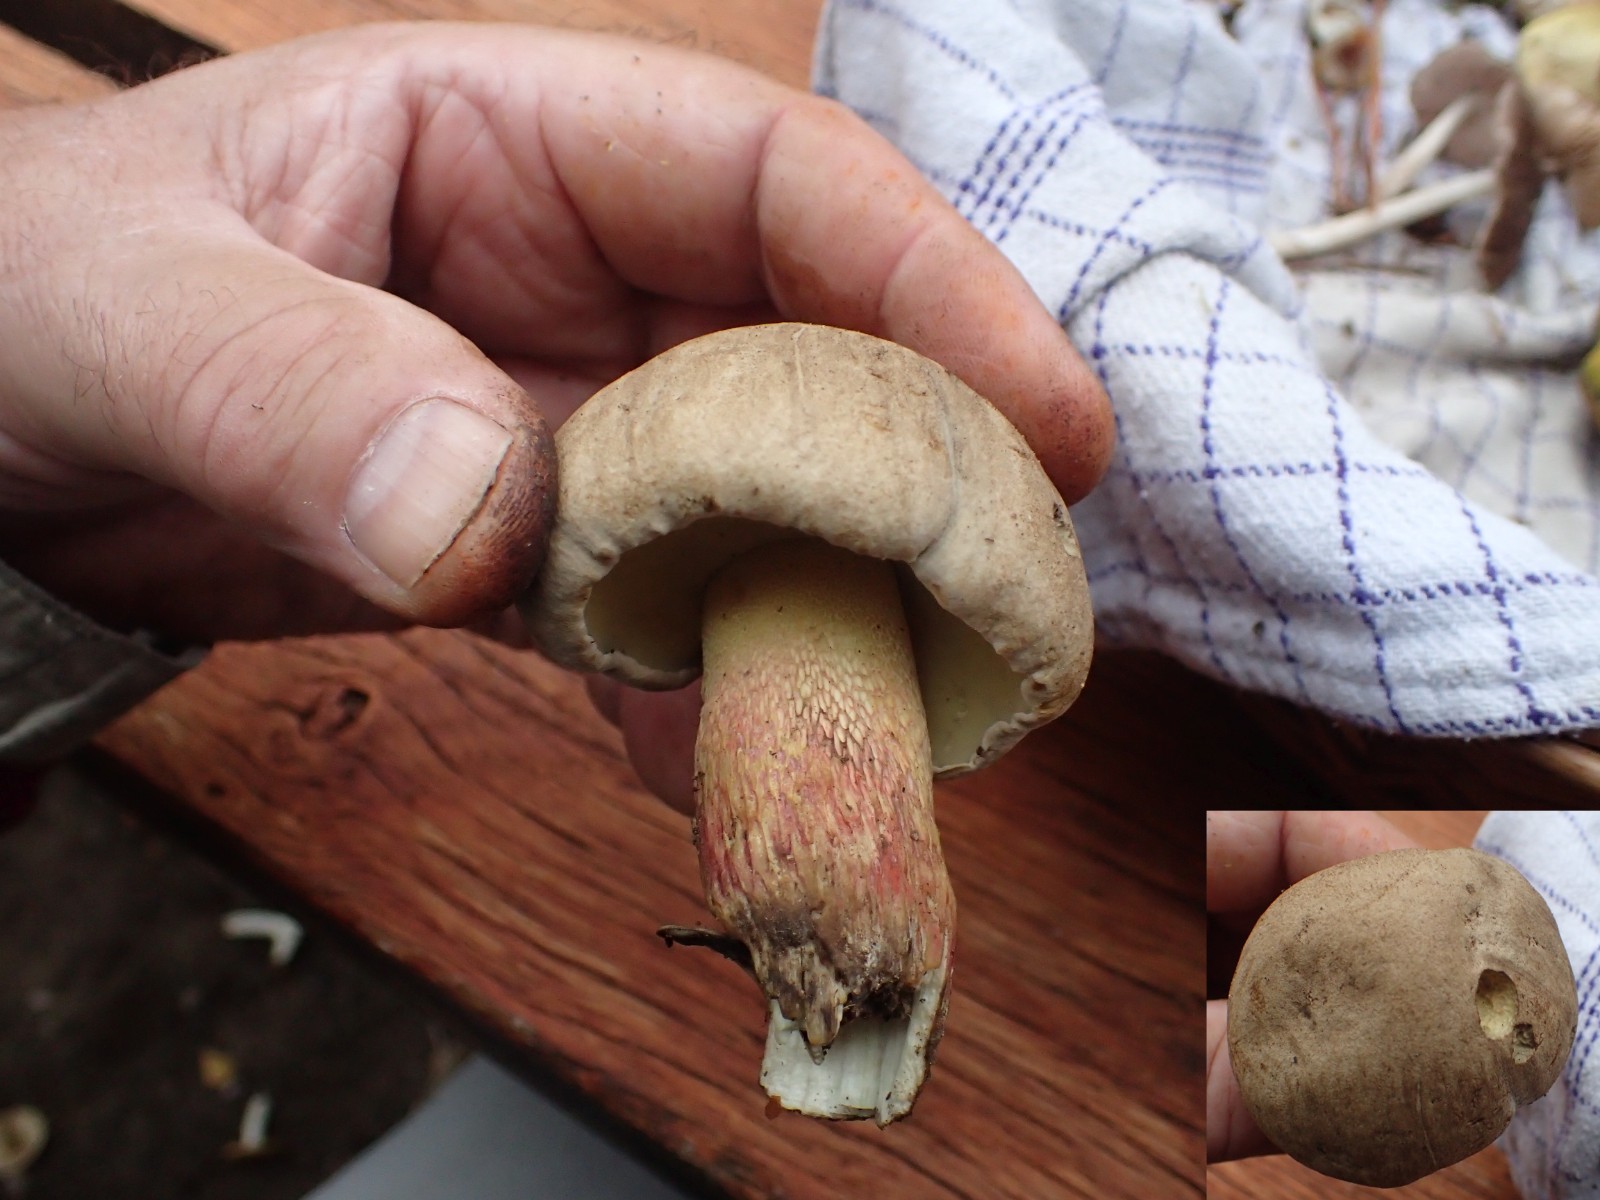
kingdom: Fungi
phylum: Basidiomycota
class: Agaricomycetes
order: Boletales
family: Boletaceae
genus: Caloboletus
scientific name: Caloboletus calopus
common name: skønfodet rørhat
